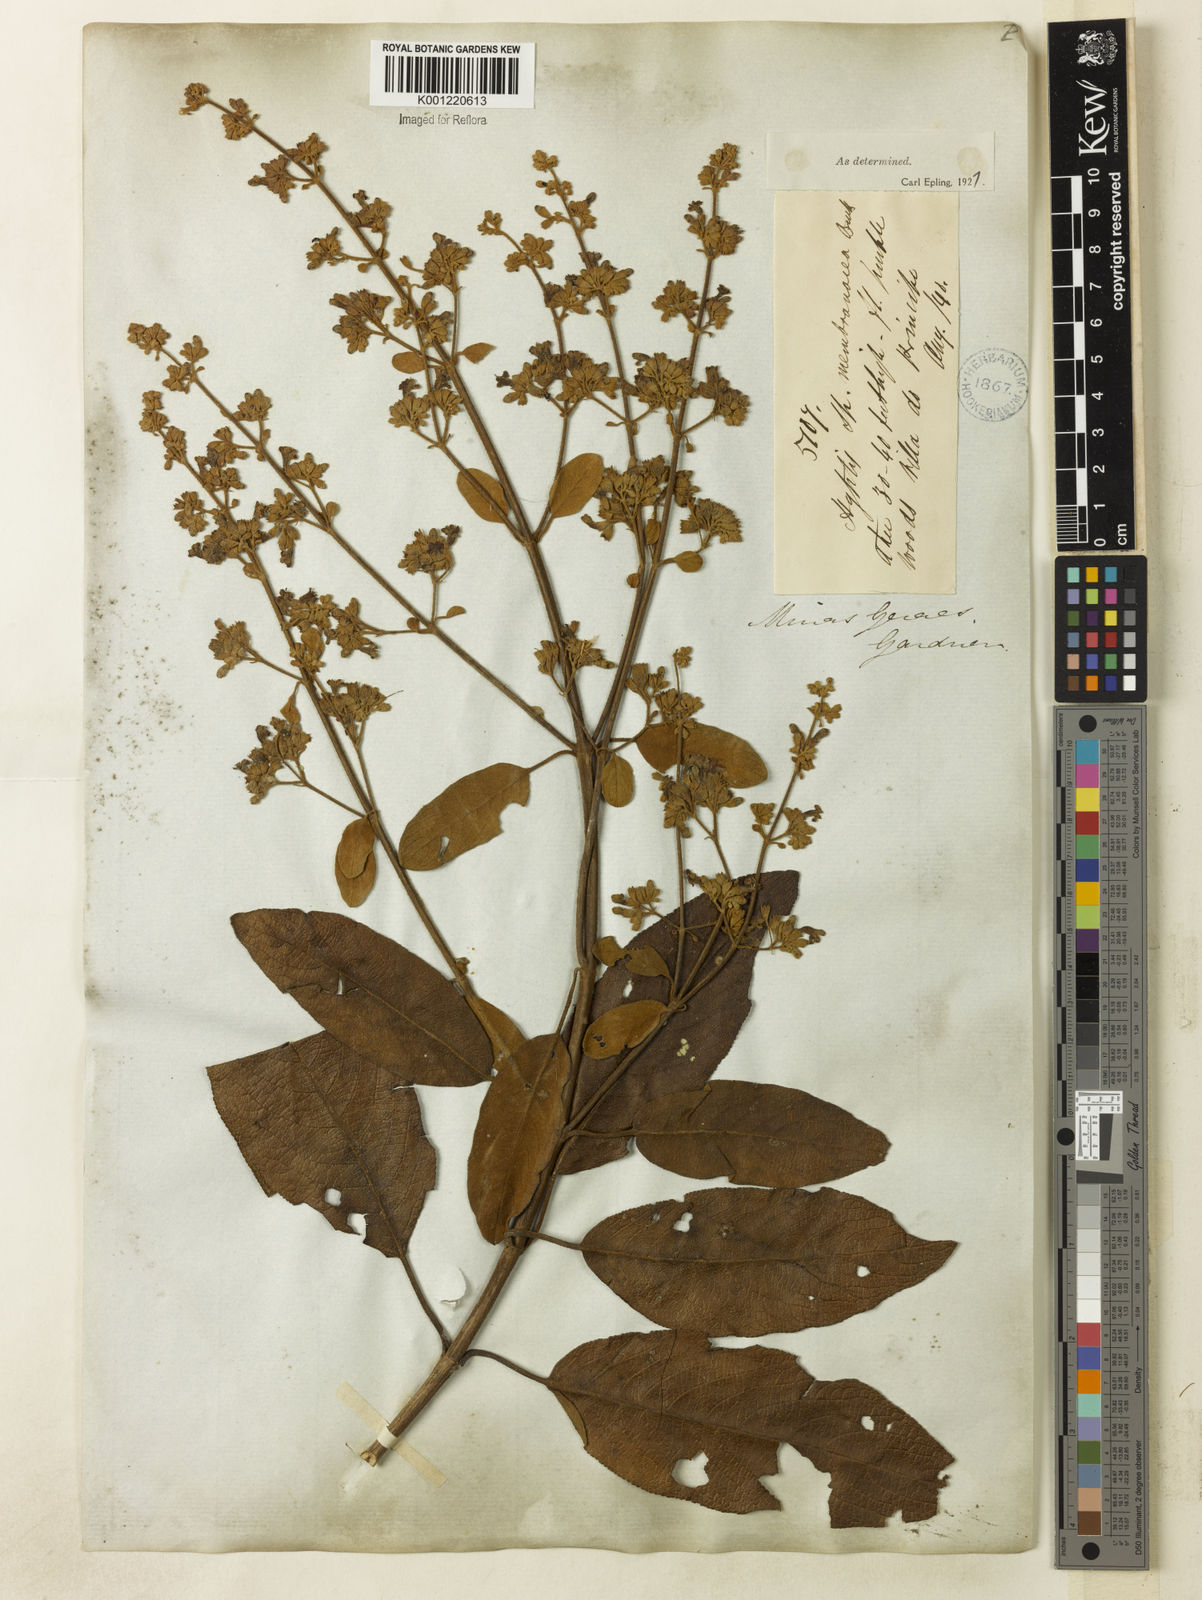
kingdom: Plantae
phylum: Tracheophyta
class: Magnoliopsida
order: Lamiales
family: Lamiaceae
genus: Hyptidendron
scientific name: Hyptidendron asperrimum
